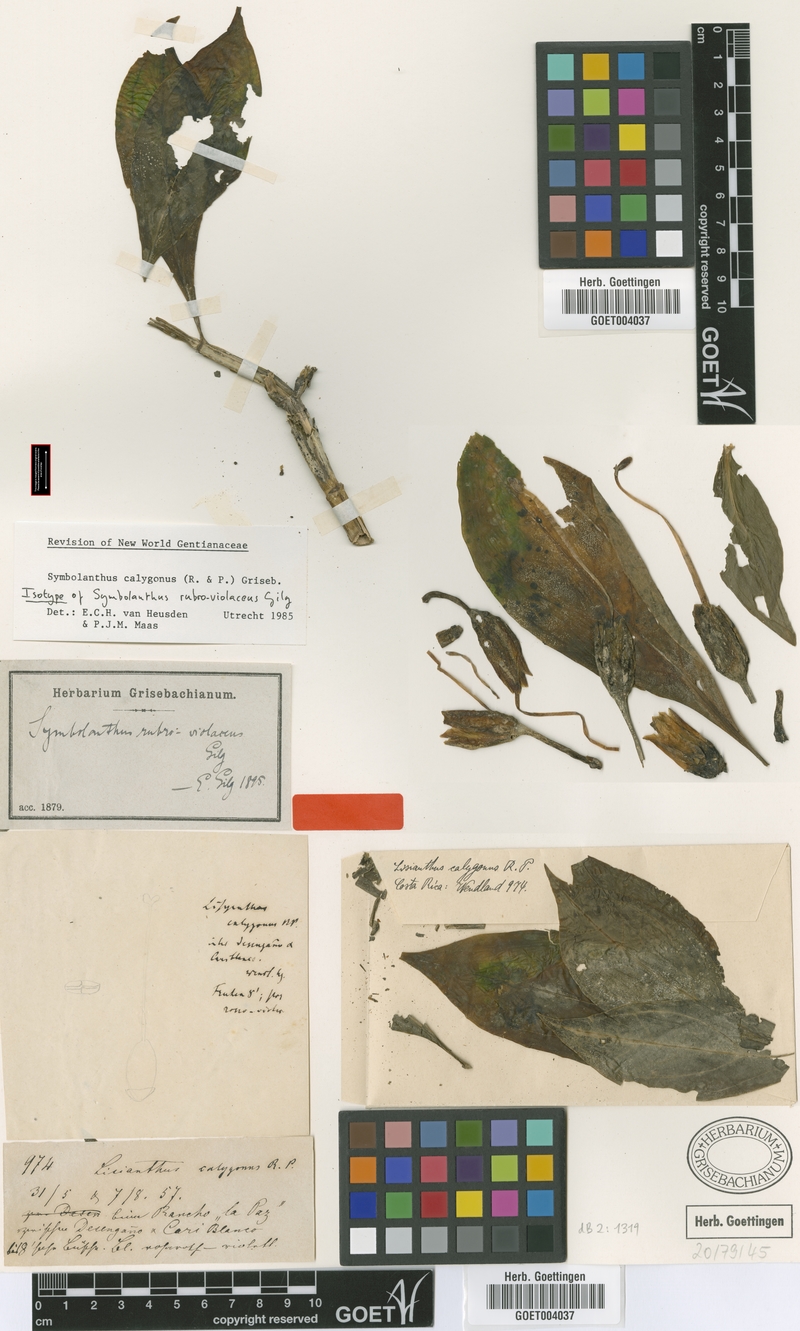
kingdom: Plantae
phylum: Tracheophyta
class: Magnoliopsida
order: Gentianales
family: Gentianaceae
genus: Symbolanthus
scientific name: Symbolanthus calygonus
